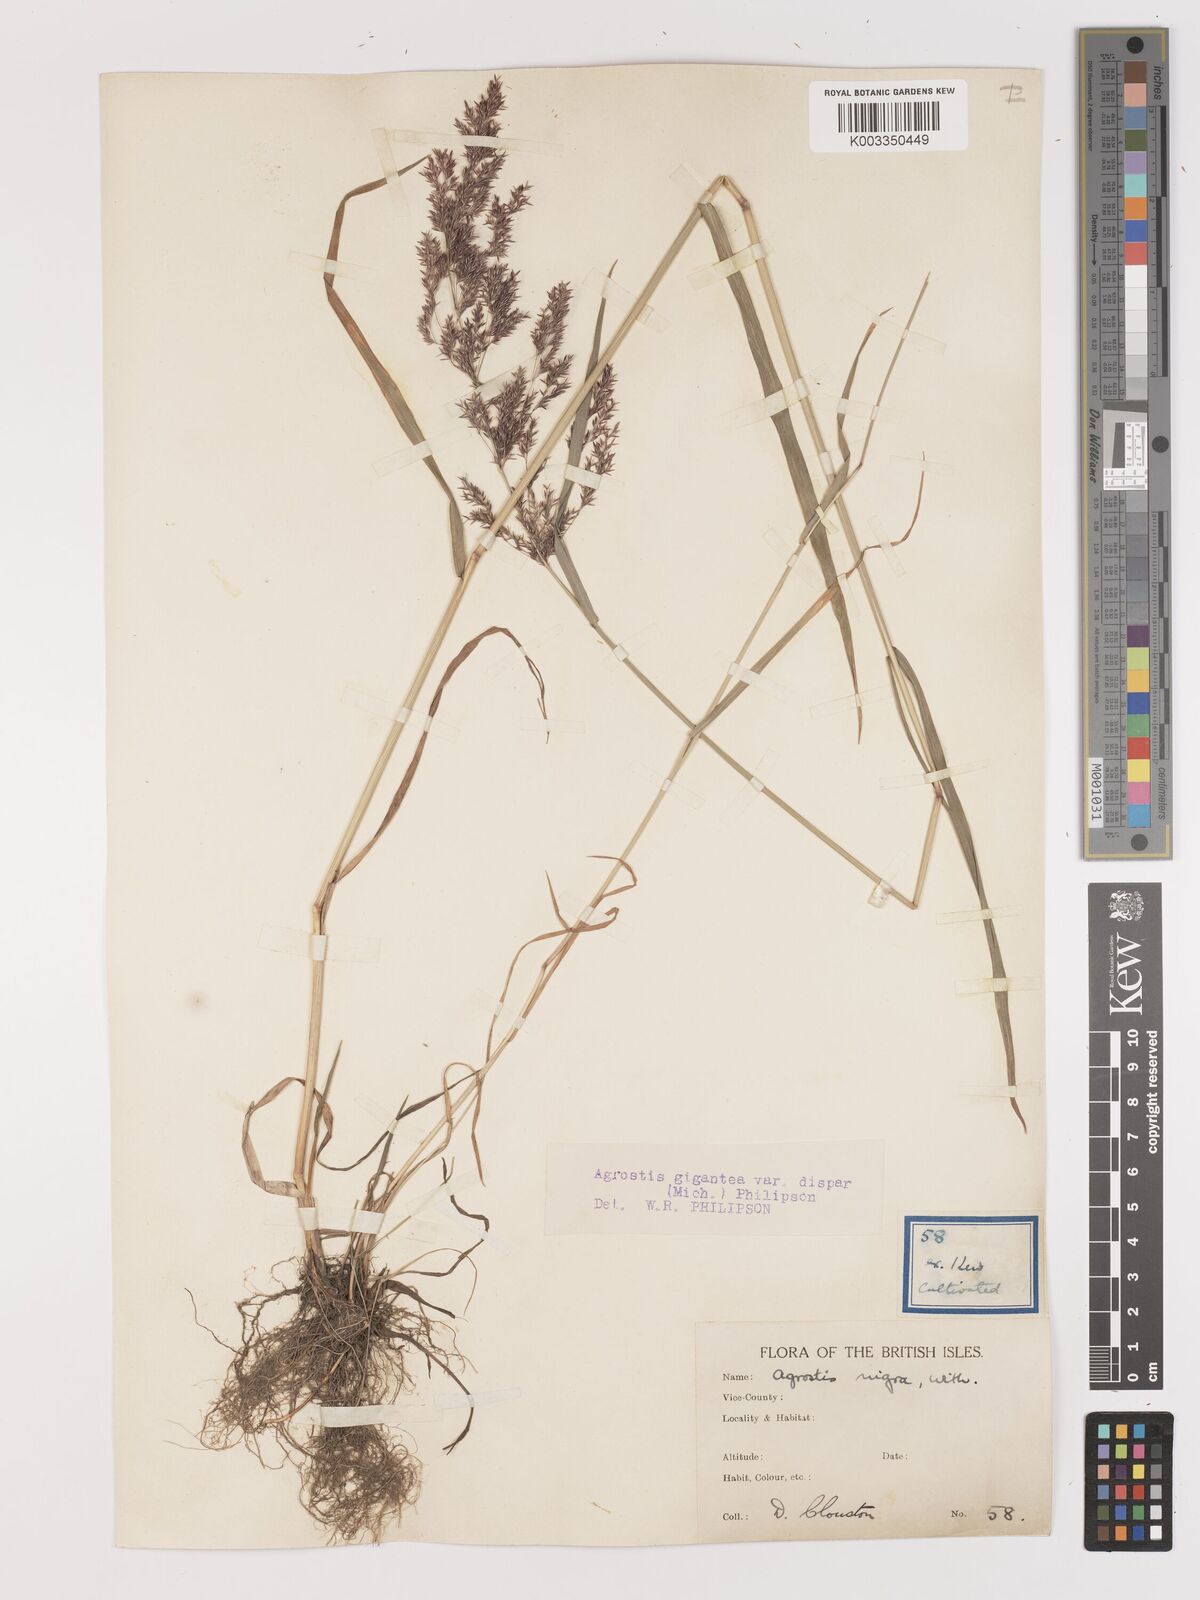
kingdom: Plantae
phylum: Tracheophyta
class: Liliopsida
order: Poales
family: Poaceae
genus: Agrostis
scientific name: Agrostis gigantea
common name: Black bent
